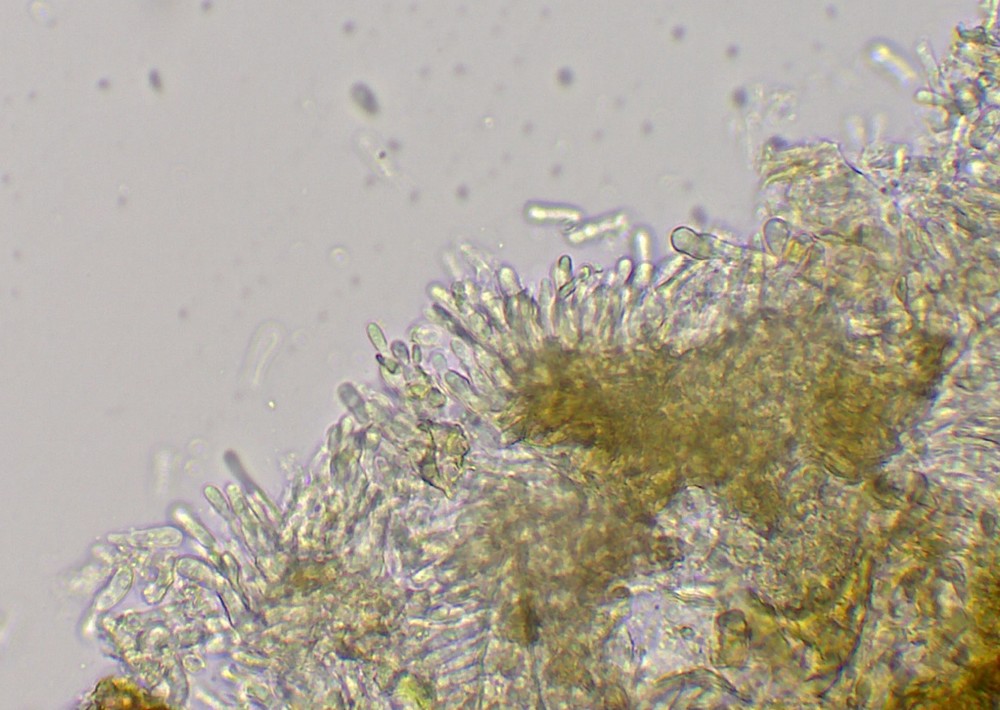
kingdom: Fungi
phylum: Ascomycota
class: Dothideomycetes
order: Asterinales
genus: Discogloeum
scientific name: Discogloeum veronicae
